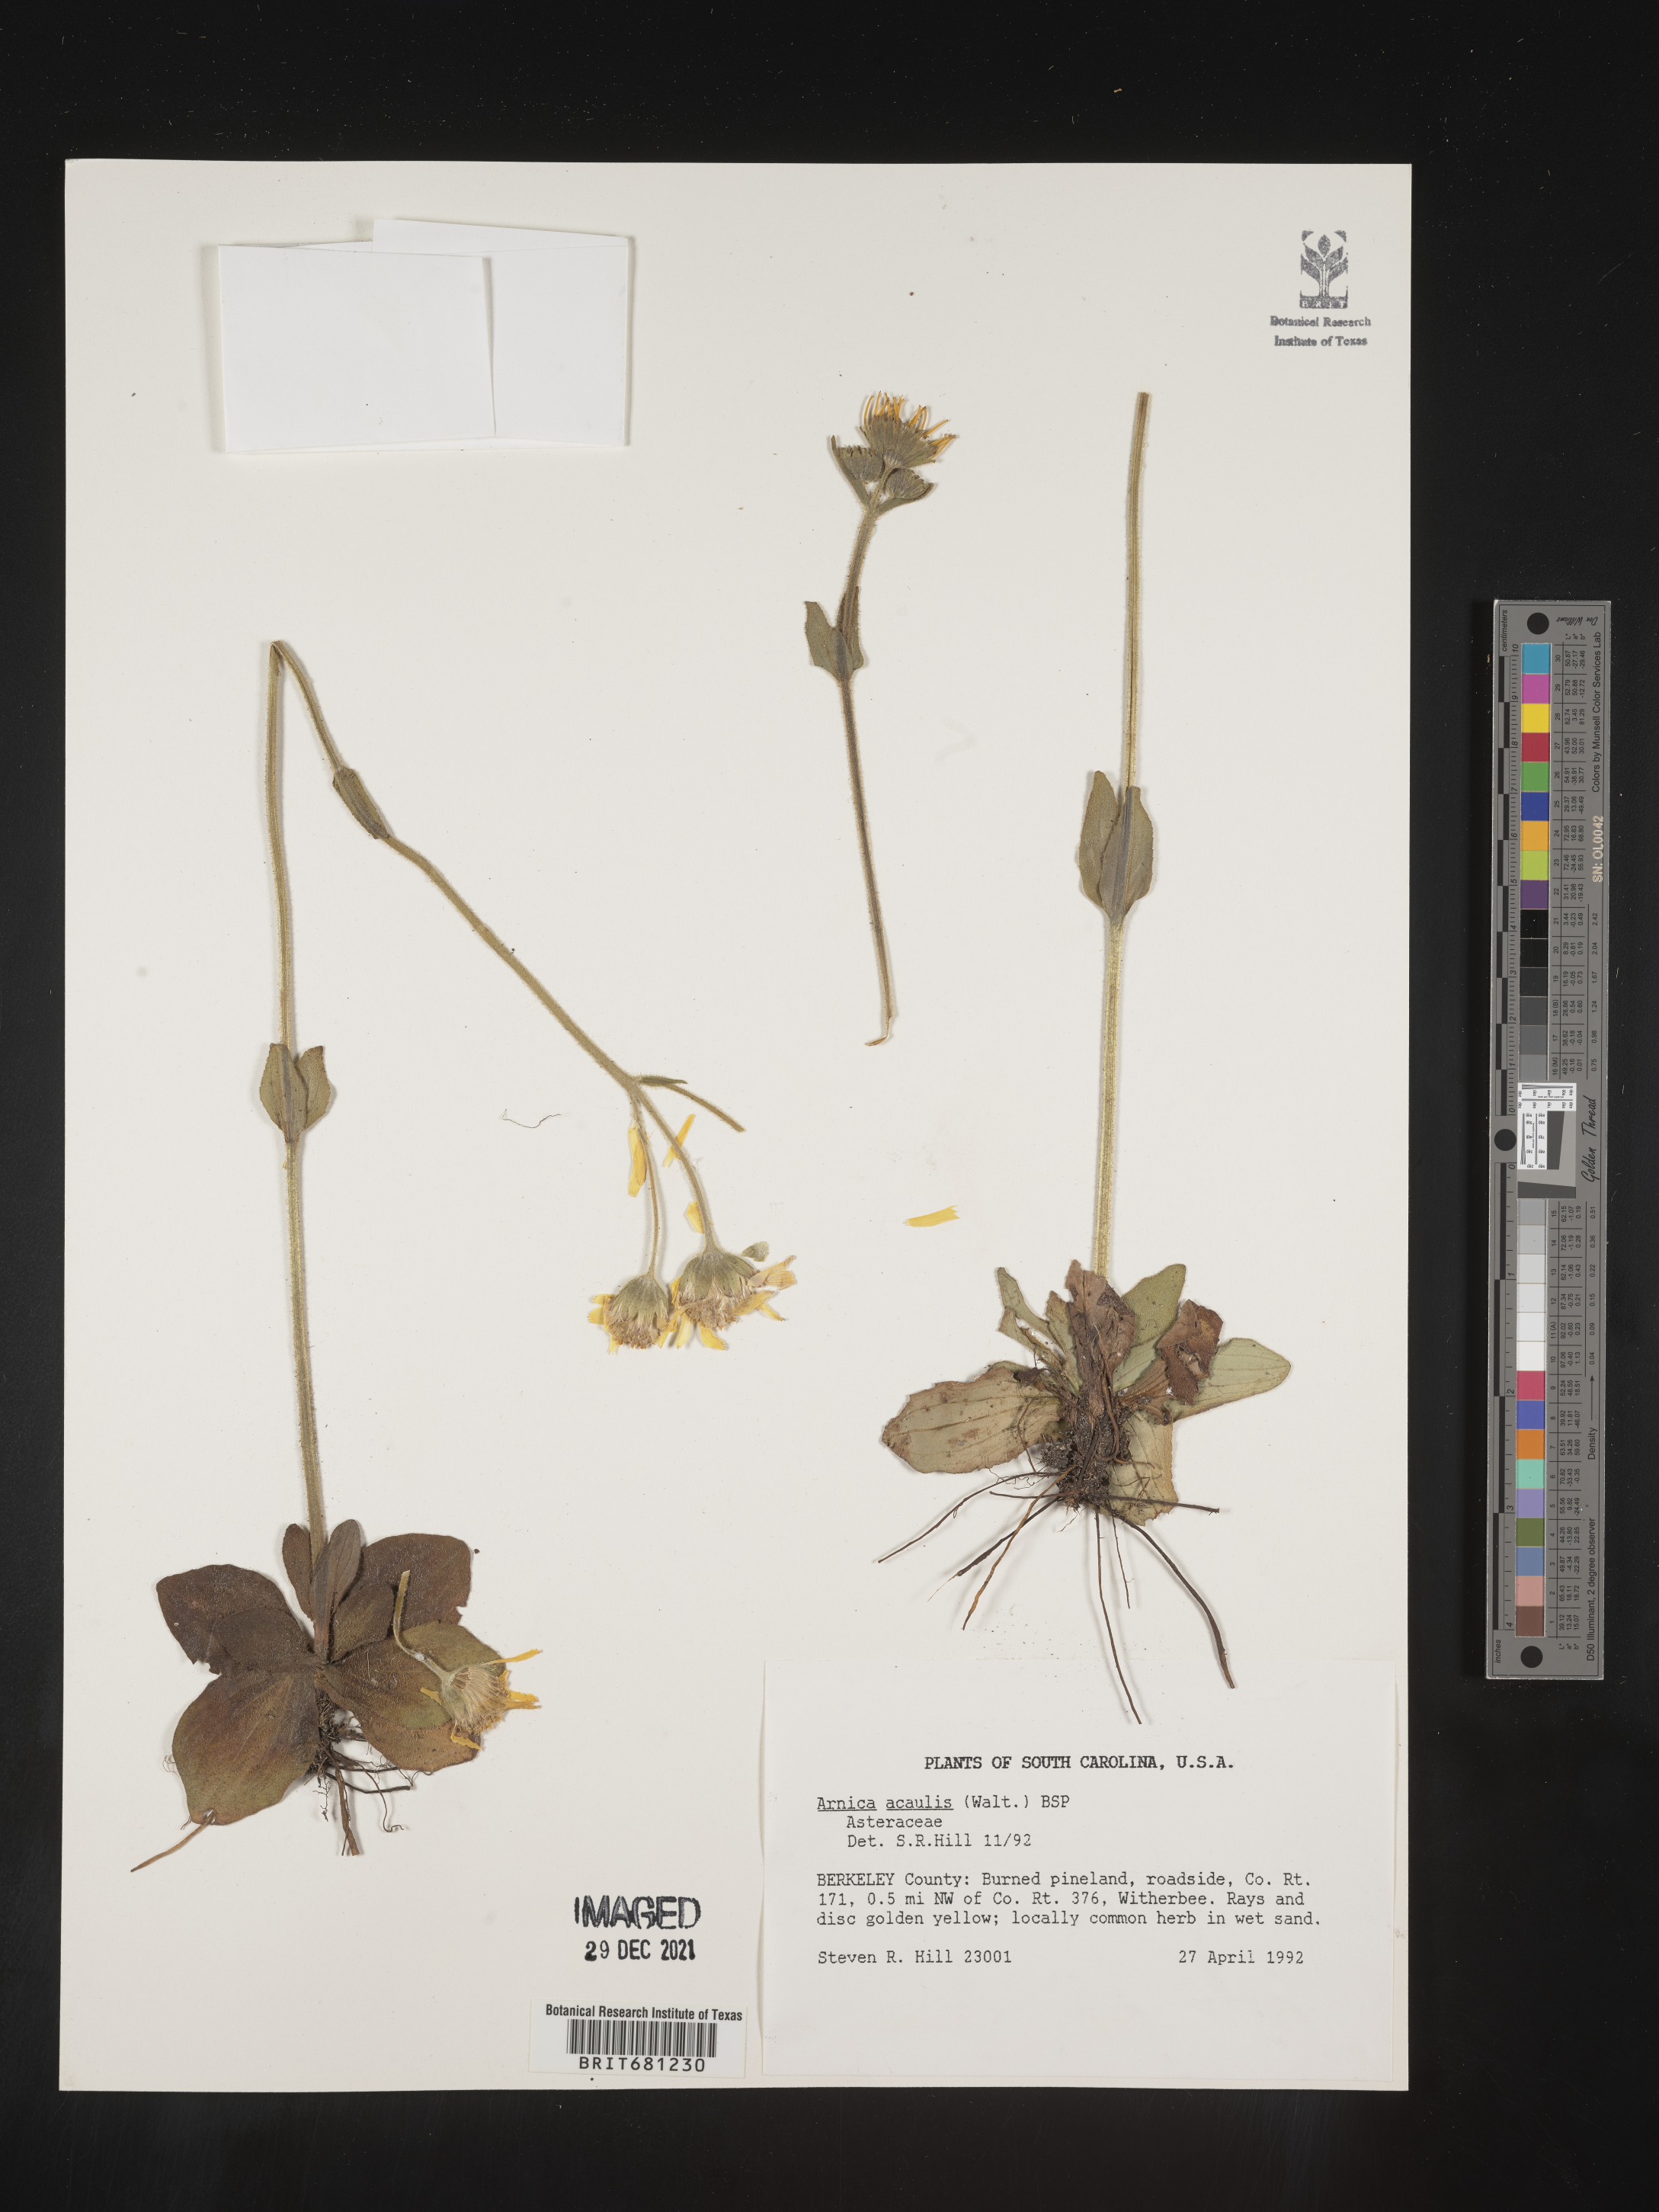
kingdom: Plantae
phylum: Tracheophyta
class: Magnoliopsida
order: Asterales
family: Asteraceae
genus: Arnica
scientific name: Arnica acaulis
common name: Common leopardbane
